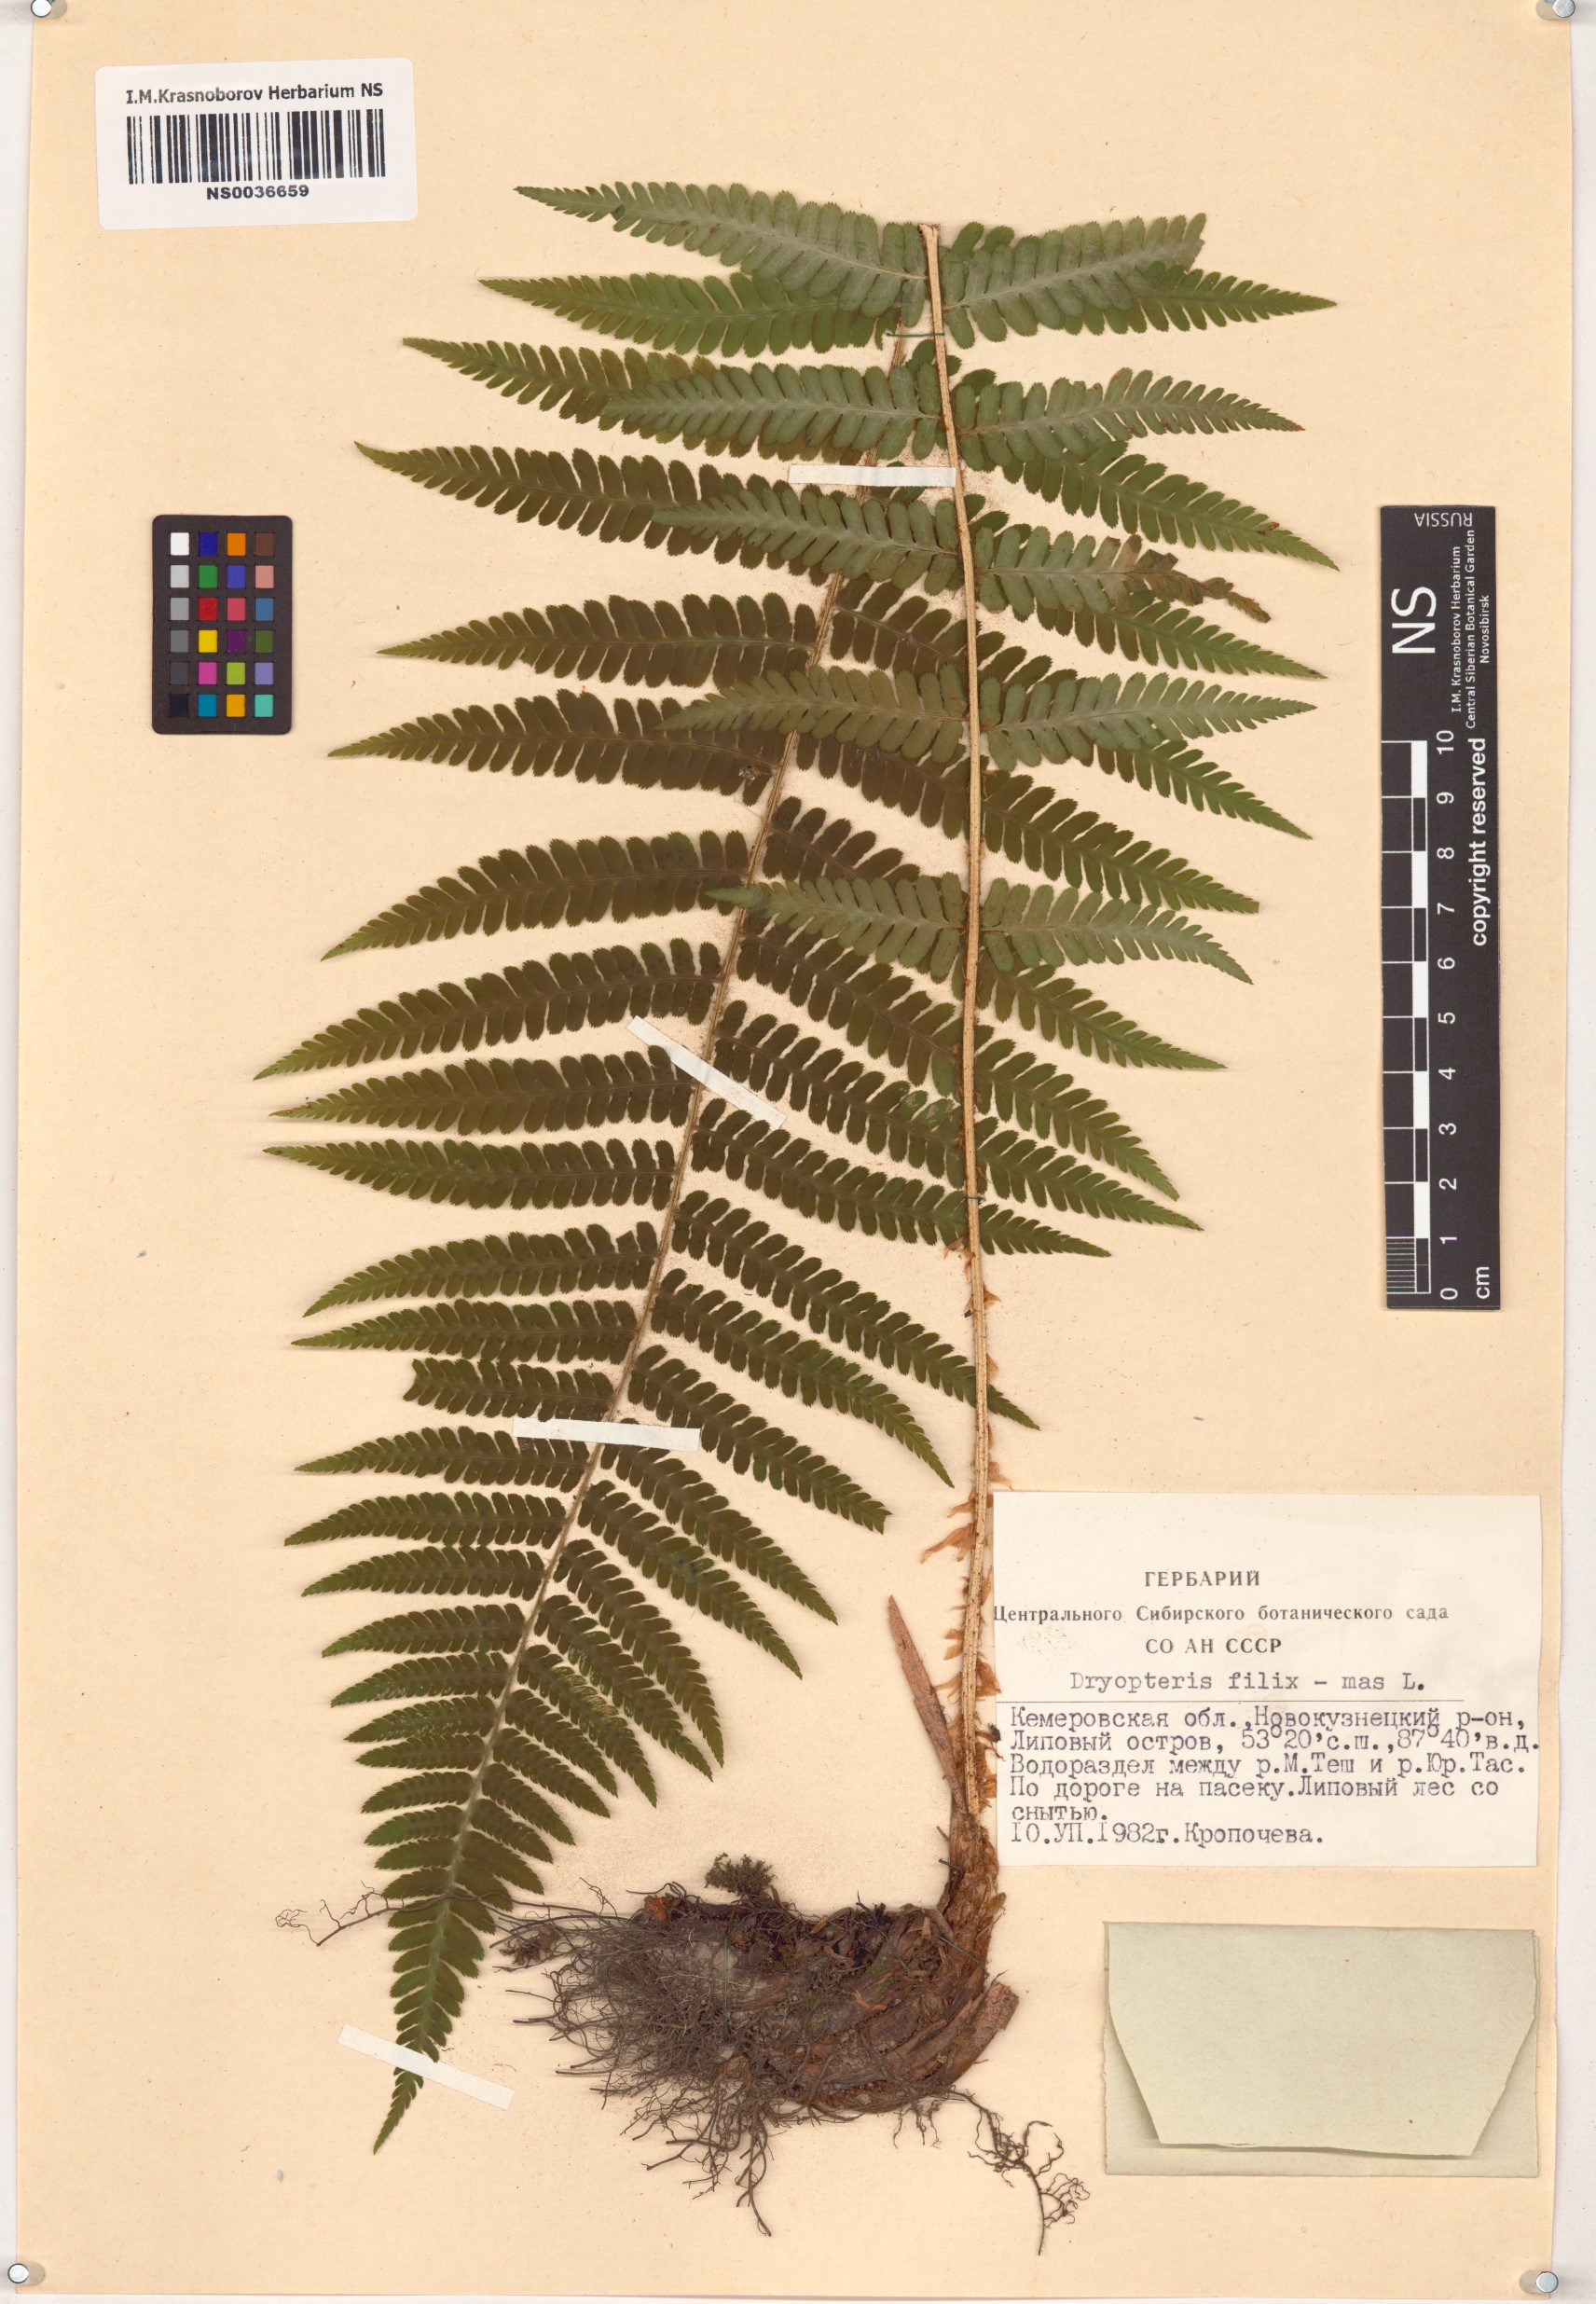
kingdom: Plantae
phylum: Tracheophyta
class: Polypodiopsida
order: Polypodiales
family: Dryopteridaceae
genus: Dryopteris
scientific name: Dryopteris filix-mas
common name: Male fern
